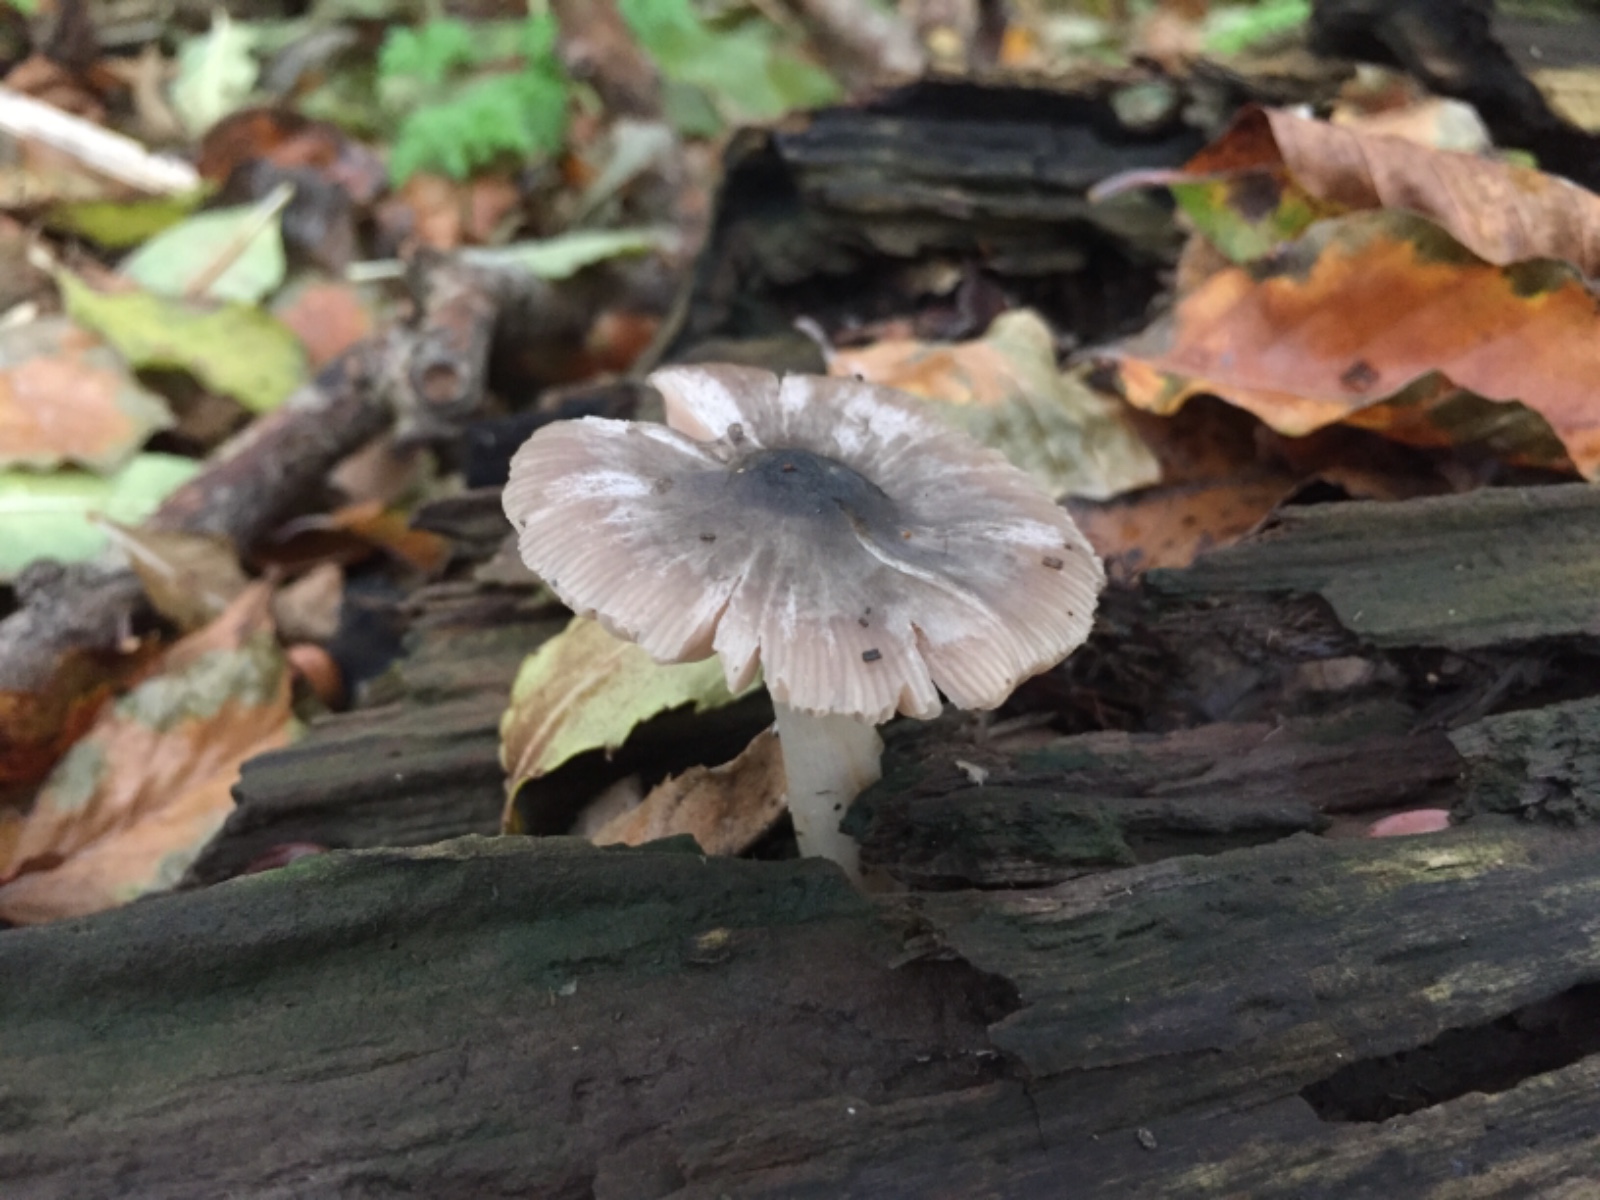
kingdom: Fungi
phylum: Basidiomycota
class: Agaricomycetes
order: Agaricales
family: Pluteaceae
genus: Pluteus
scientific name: Pluteus salicinus
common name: stiv skærmhat
